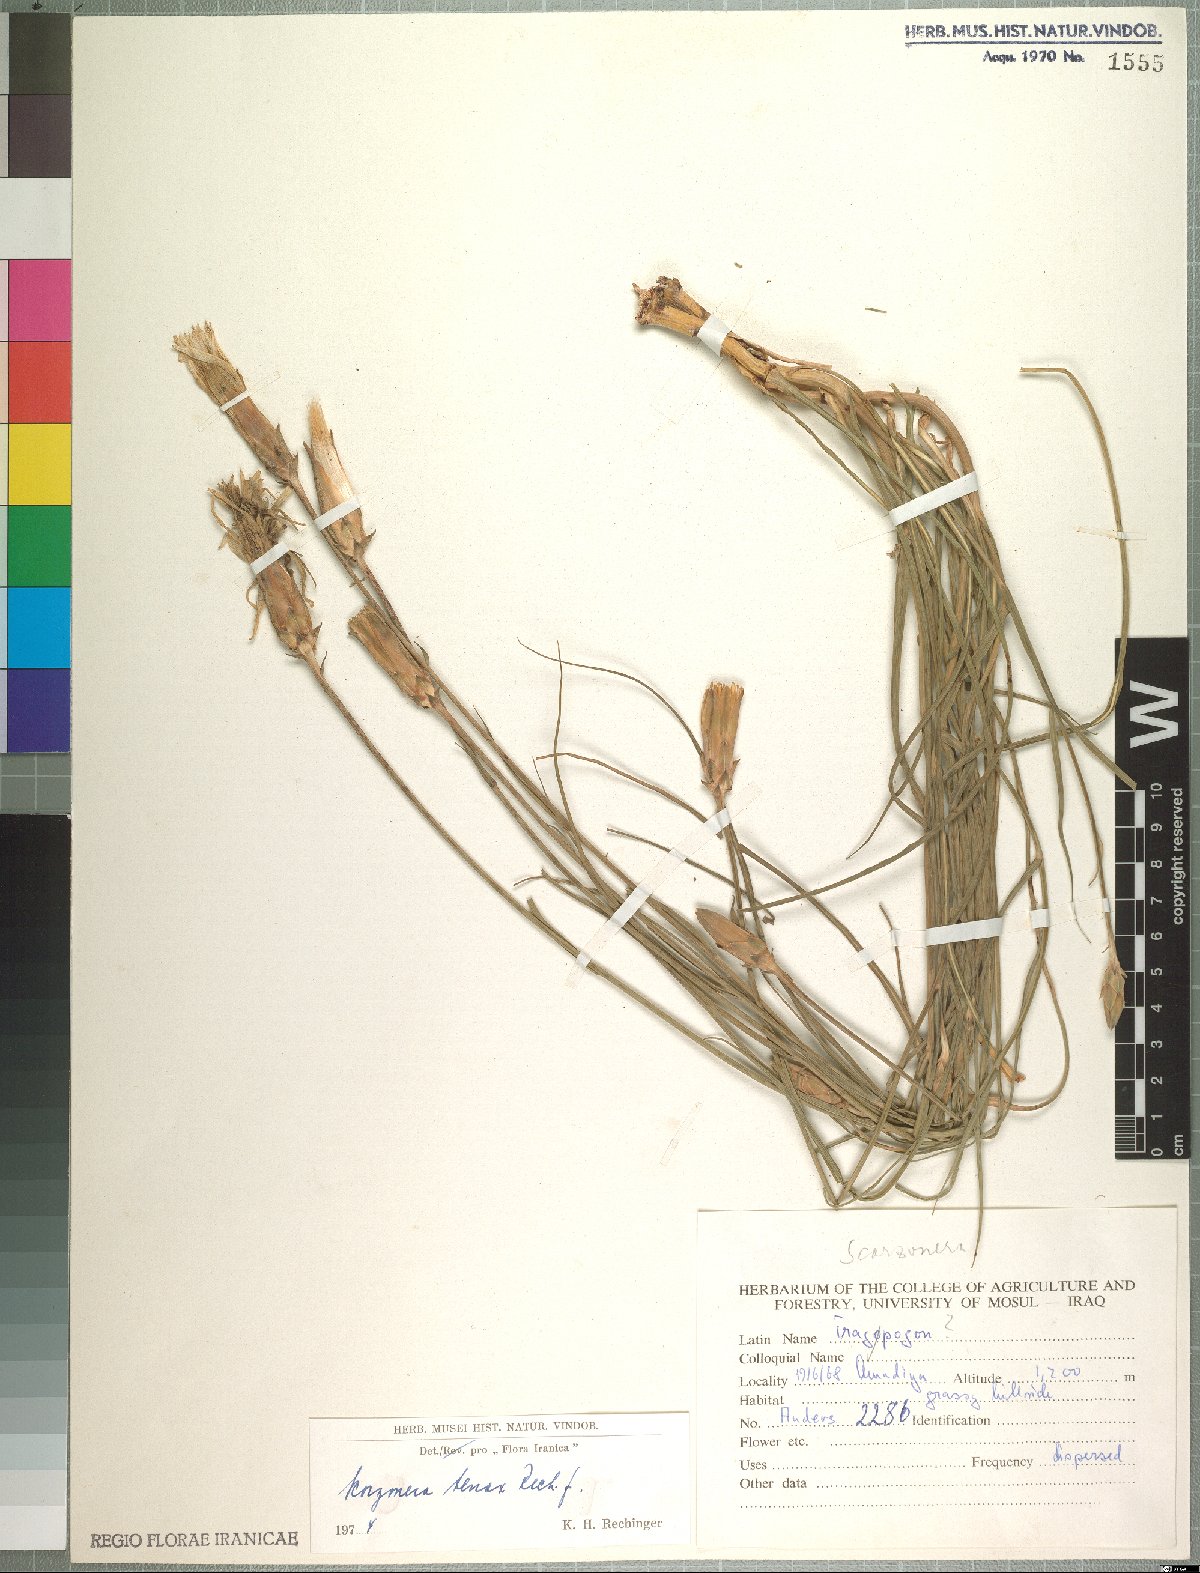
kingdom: Plantae
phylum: Tracheophyta
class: Magnoliopsida
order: Asterales
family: Asteraceae
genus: Candollea
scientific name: Candollea davisii
